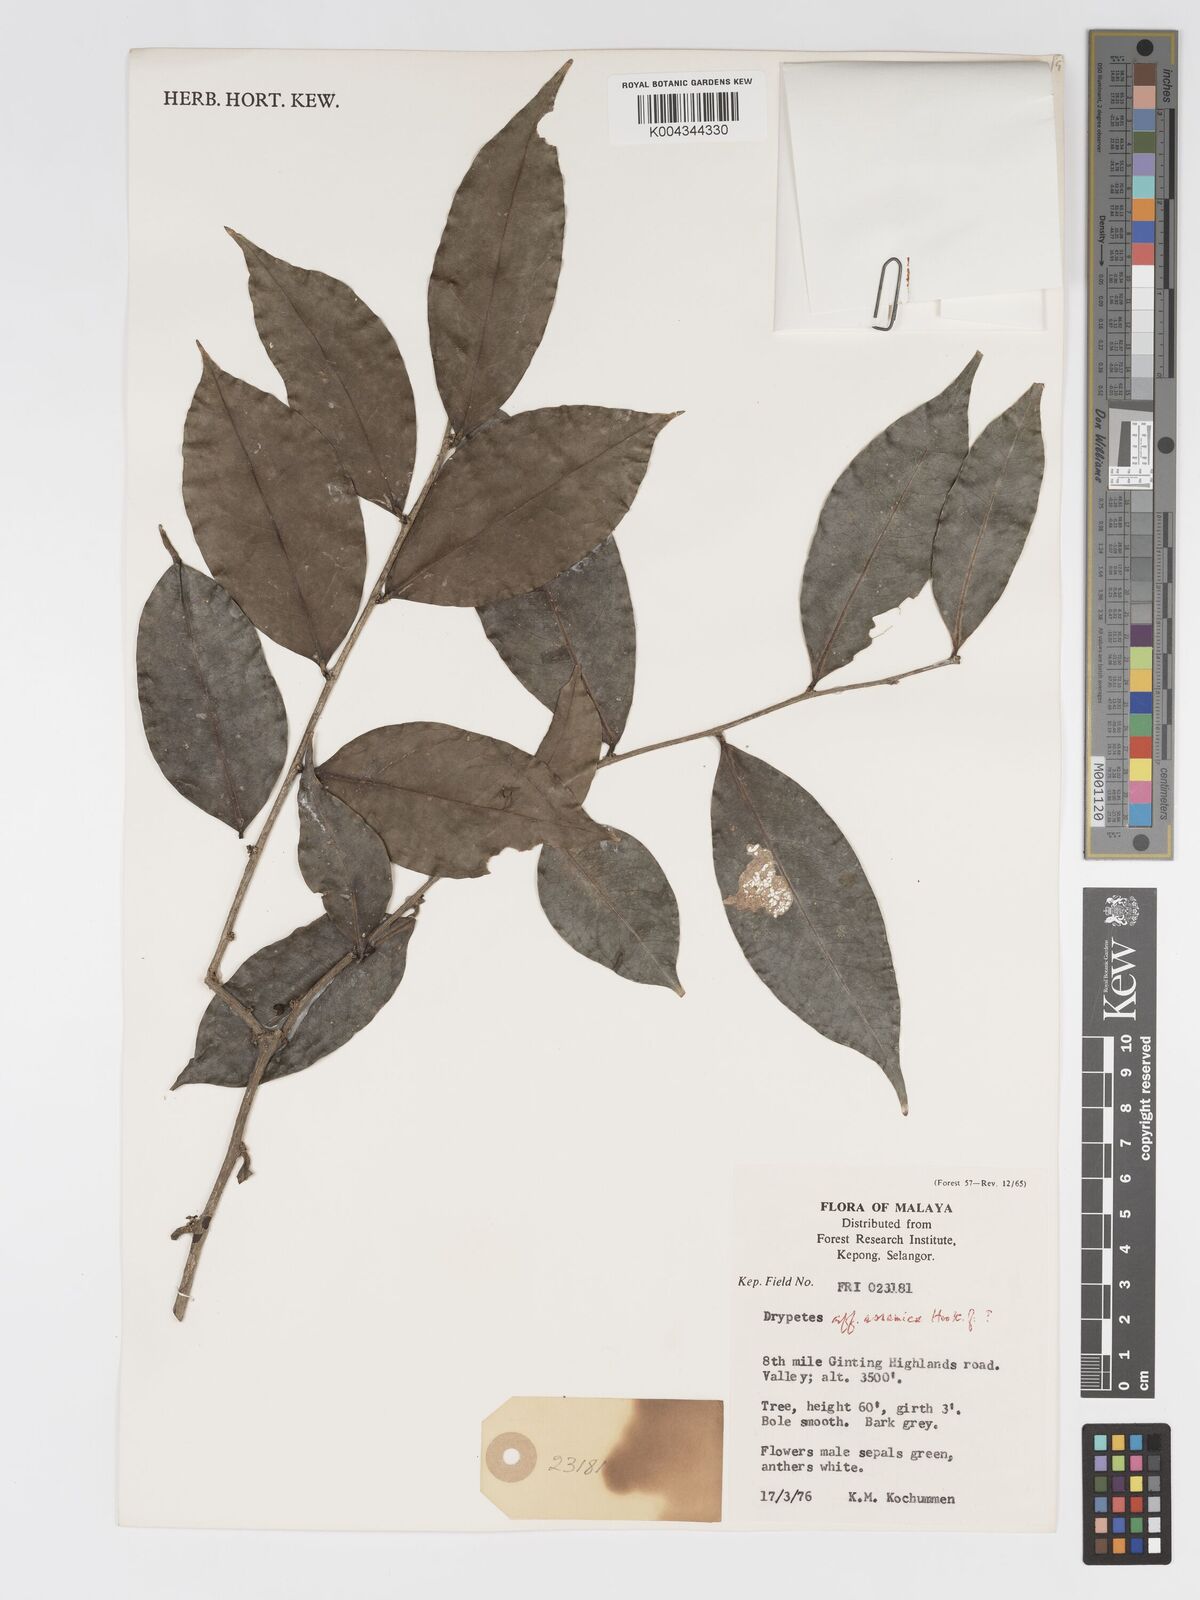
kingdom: Plantae
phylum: Tracheophyta
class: Magnoliopsida
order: Malpighiales
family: Putranjivaceae
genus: Drypetes
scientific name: Drypetes assamica
